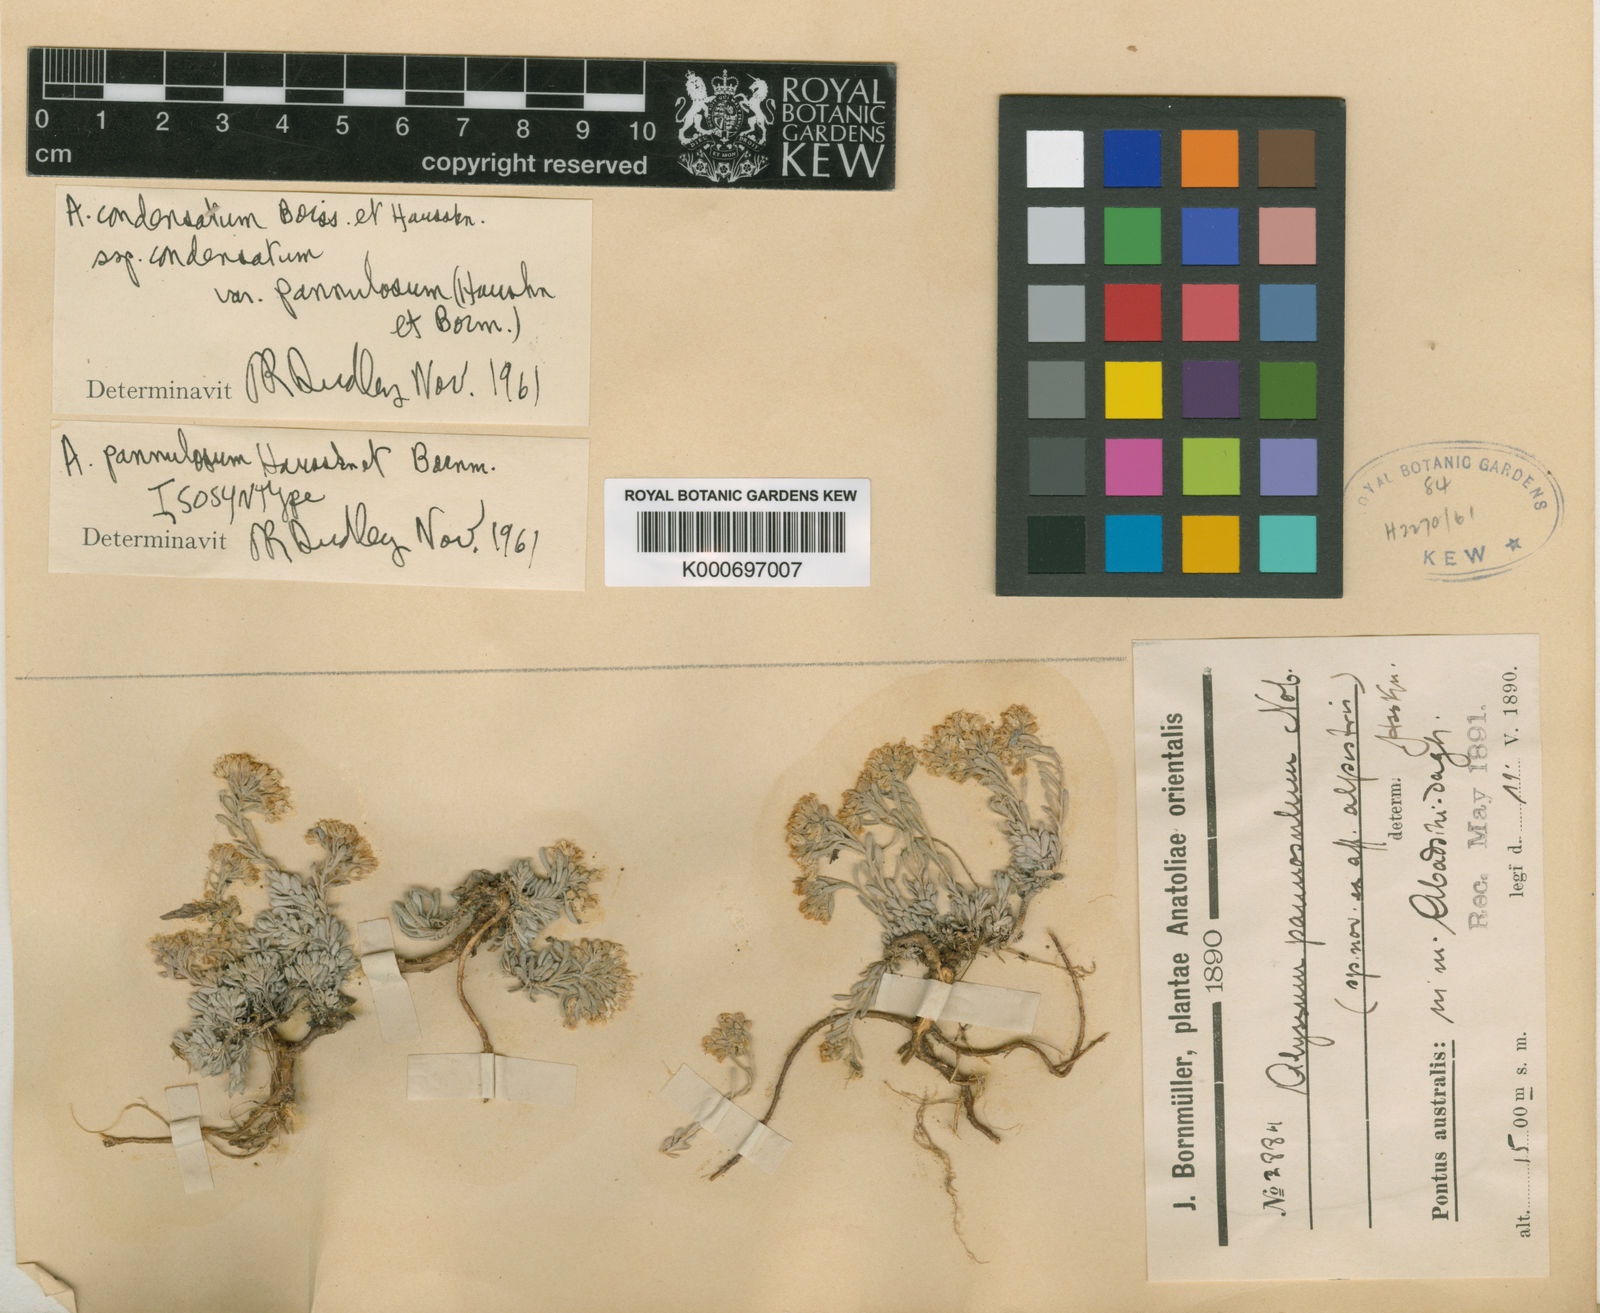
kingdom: Plantae
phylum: Tracheophyta
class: Magnoliopsida
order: Brassicales
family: Brassicaceae
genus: Alyssum
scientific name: Alyssum pannulosum
